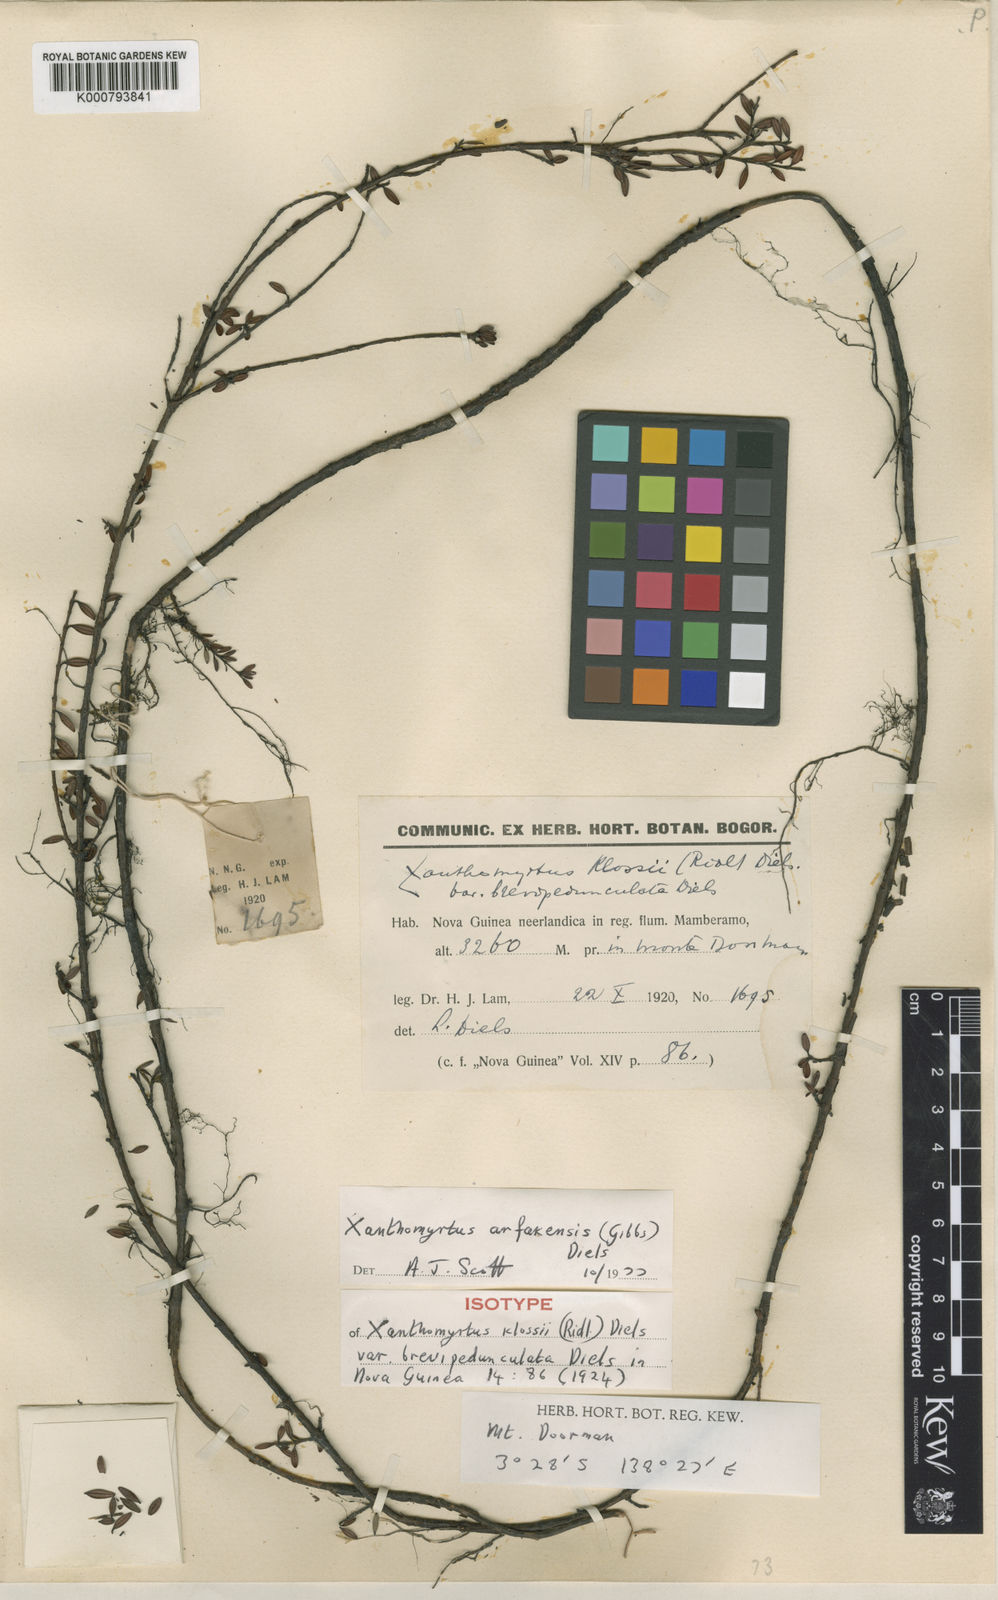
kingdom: Plantae
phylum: Tracheophyta
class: Magnoliopsida
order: Myrtales
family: Myrtaceae
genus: Xanthomyrtus
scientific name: Xanthomyrtus arfakensis
